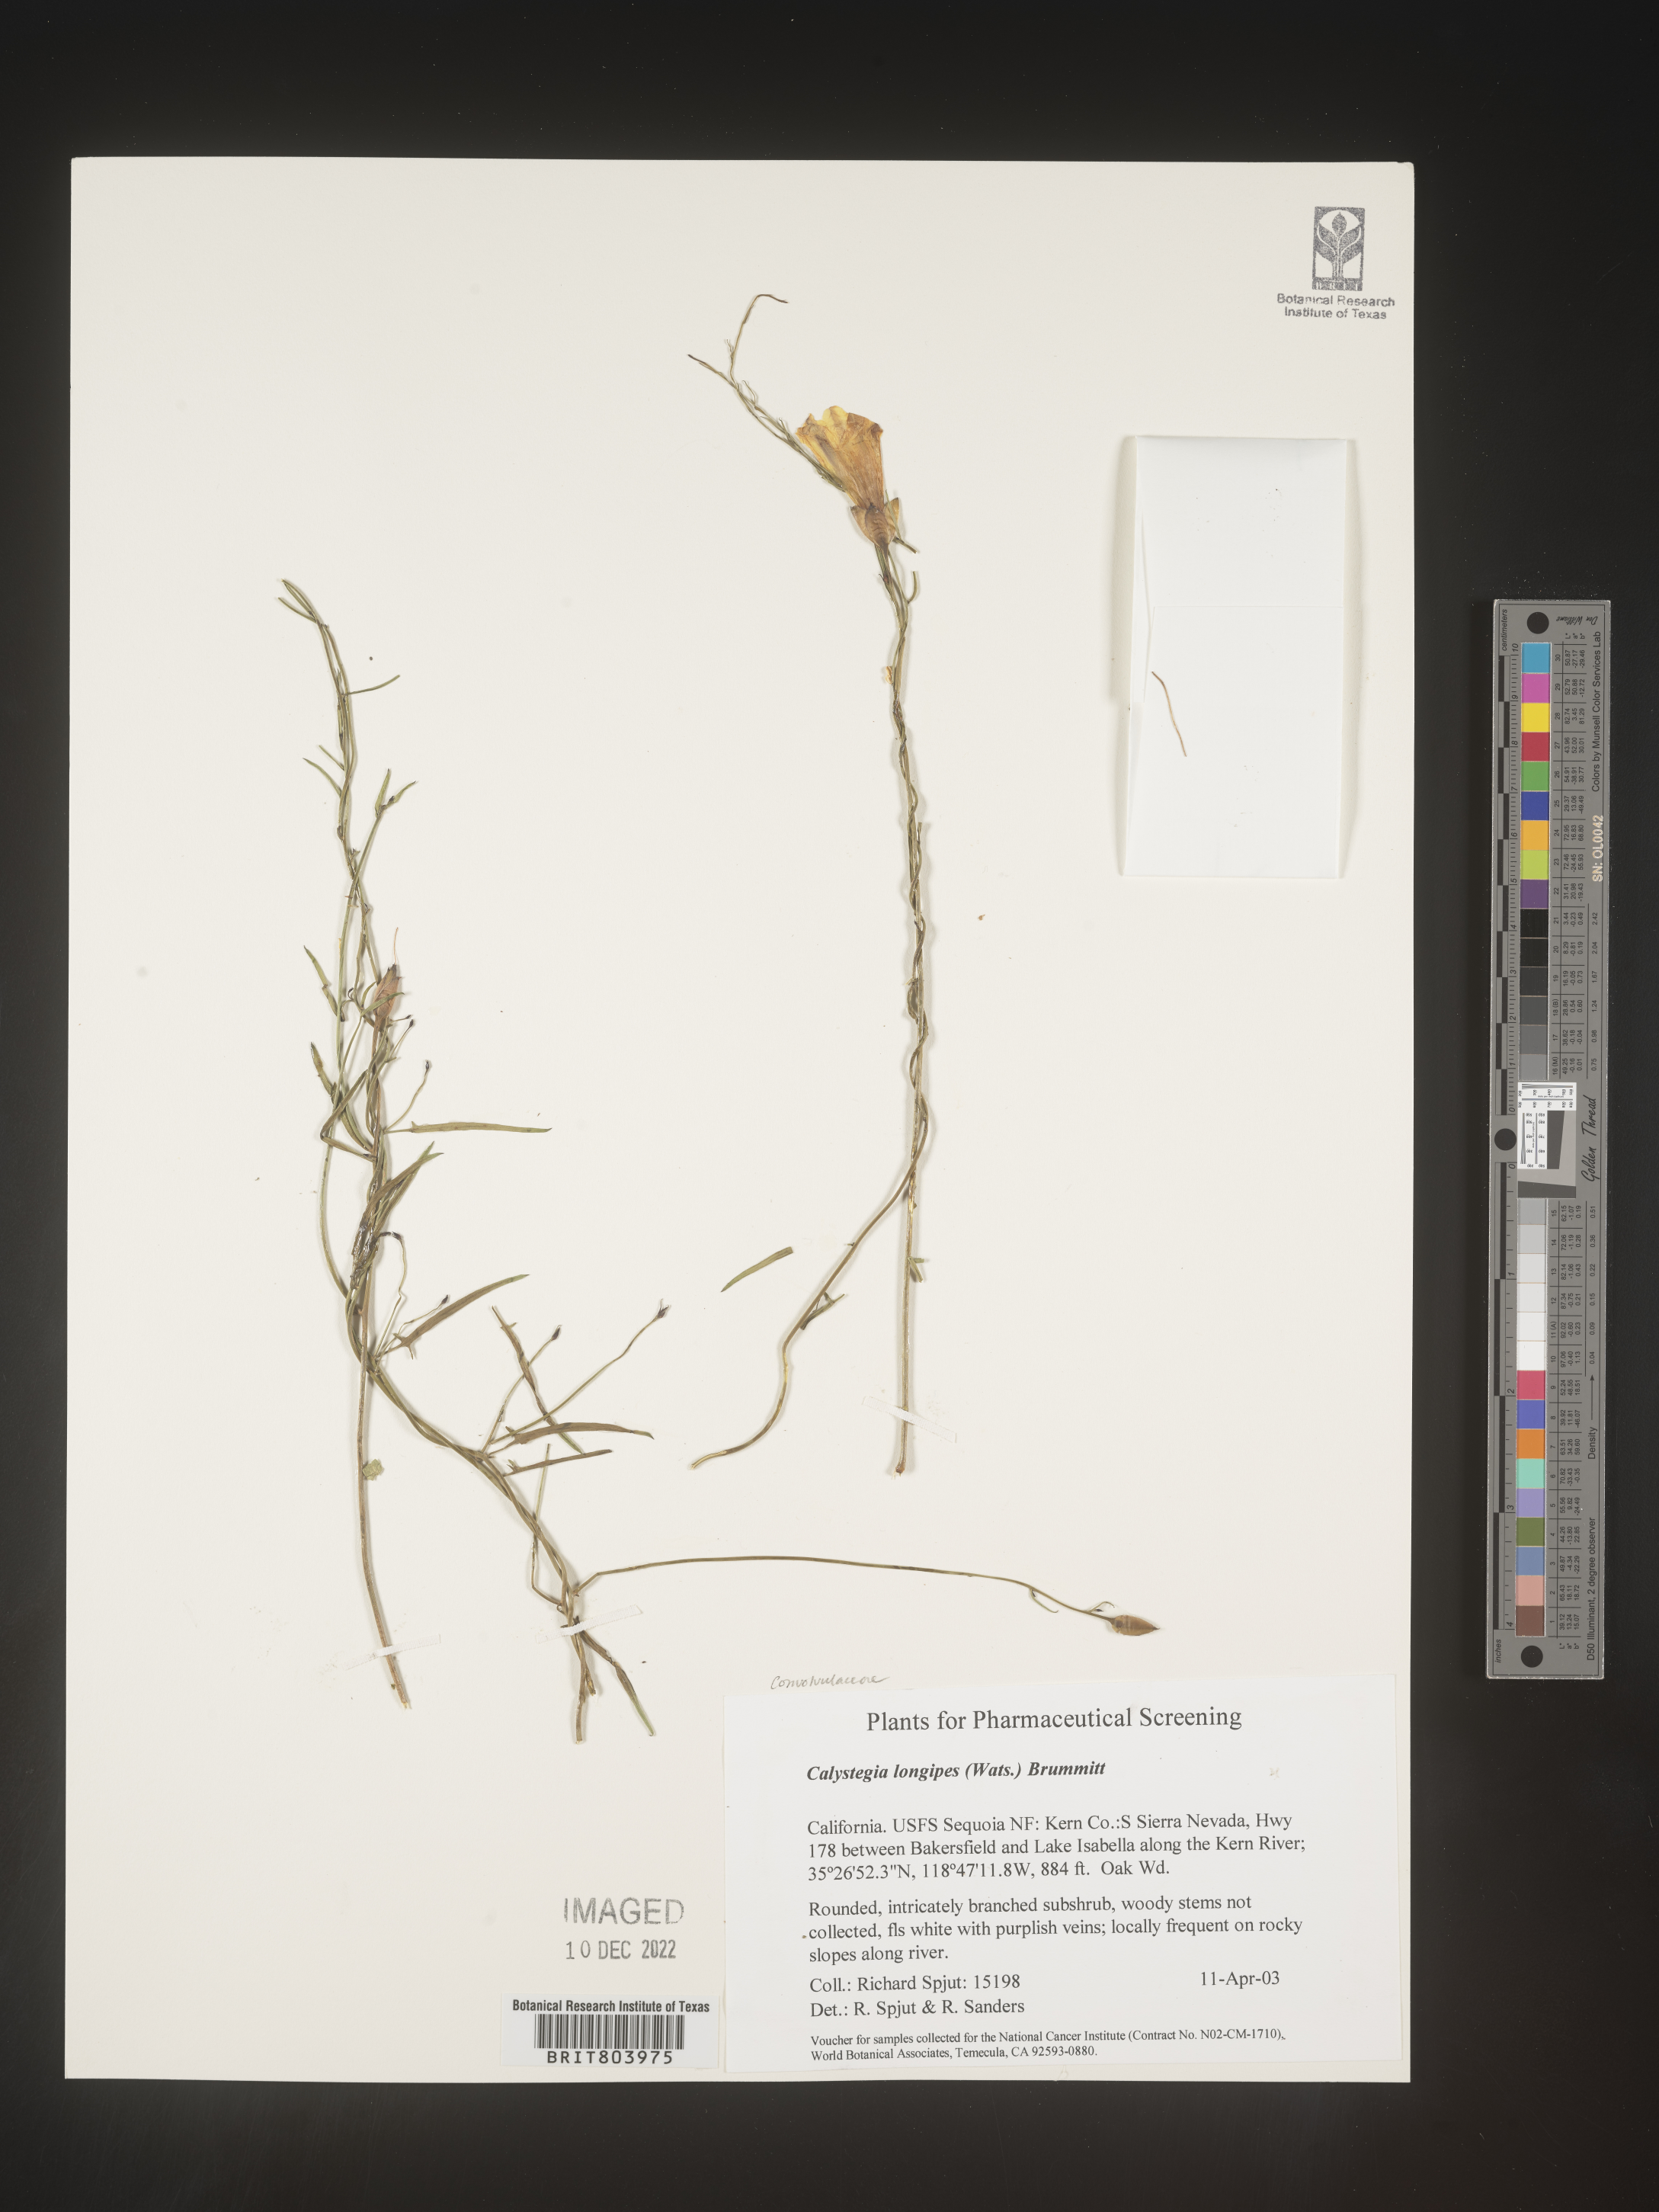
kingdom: Plantae
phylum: Tracheophyta
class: Magnoliopsida
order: Solanales
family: Convolvulaceae
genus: Calystegia
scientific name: Calystegia
